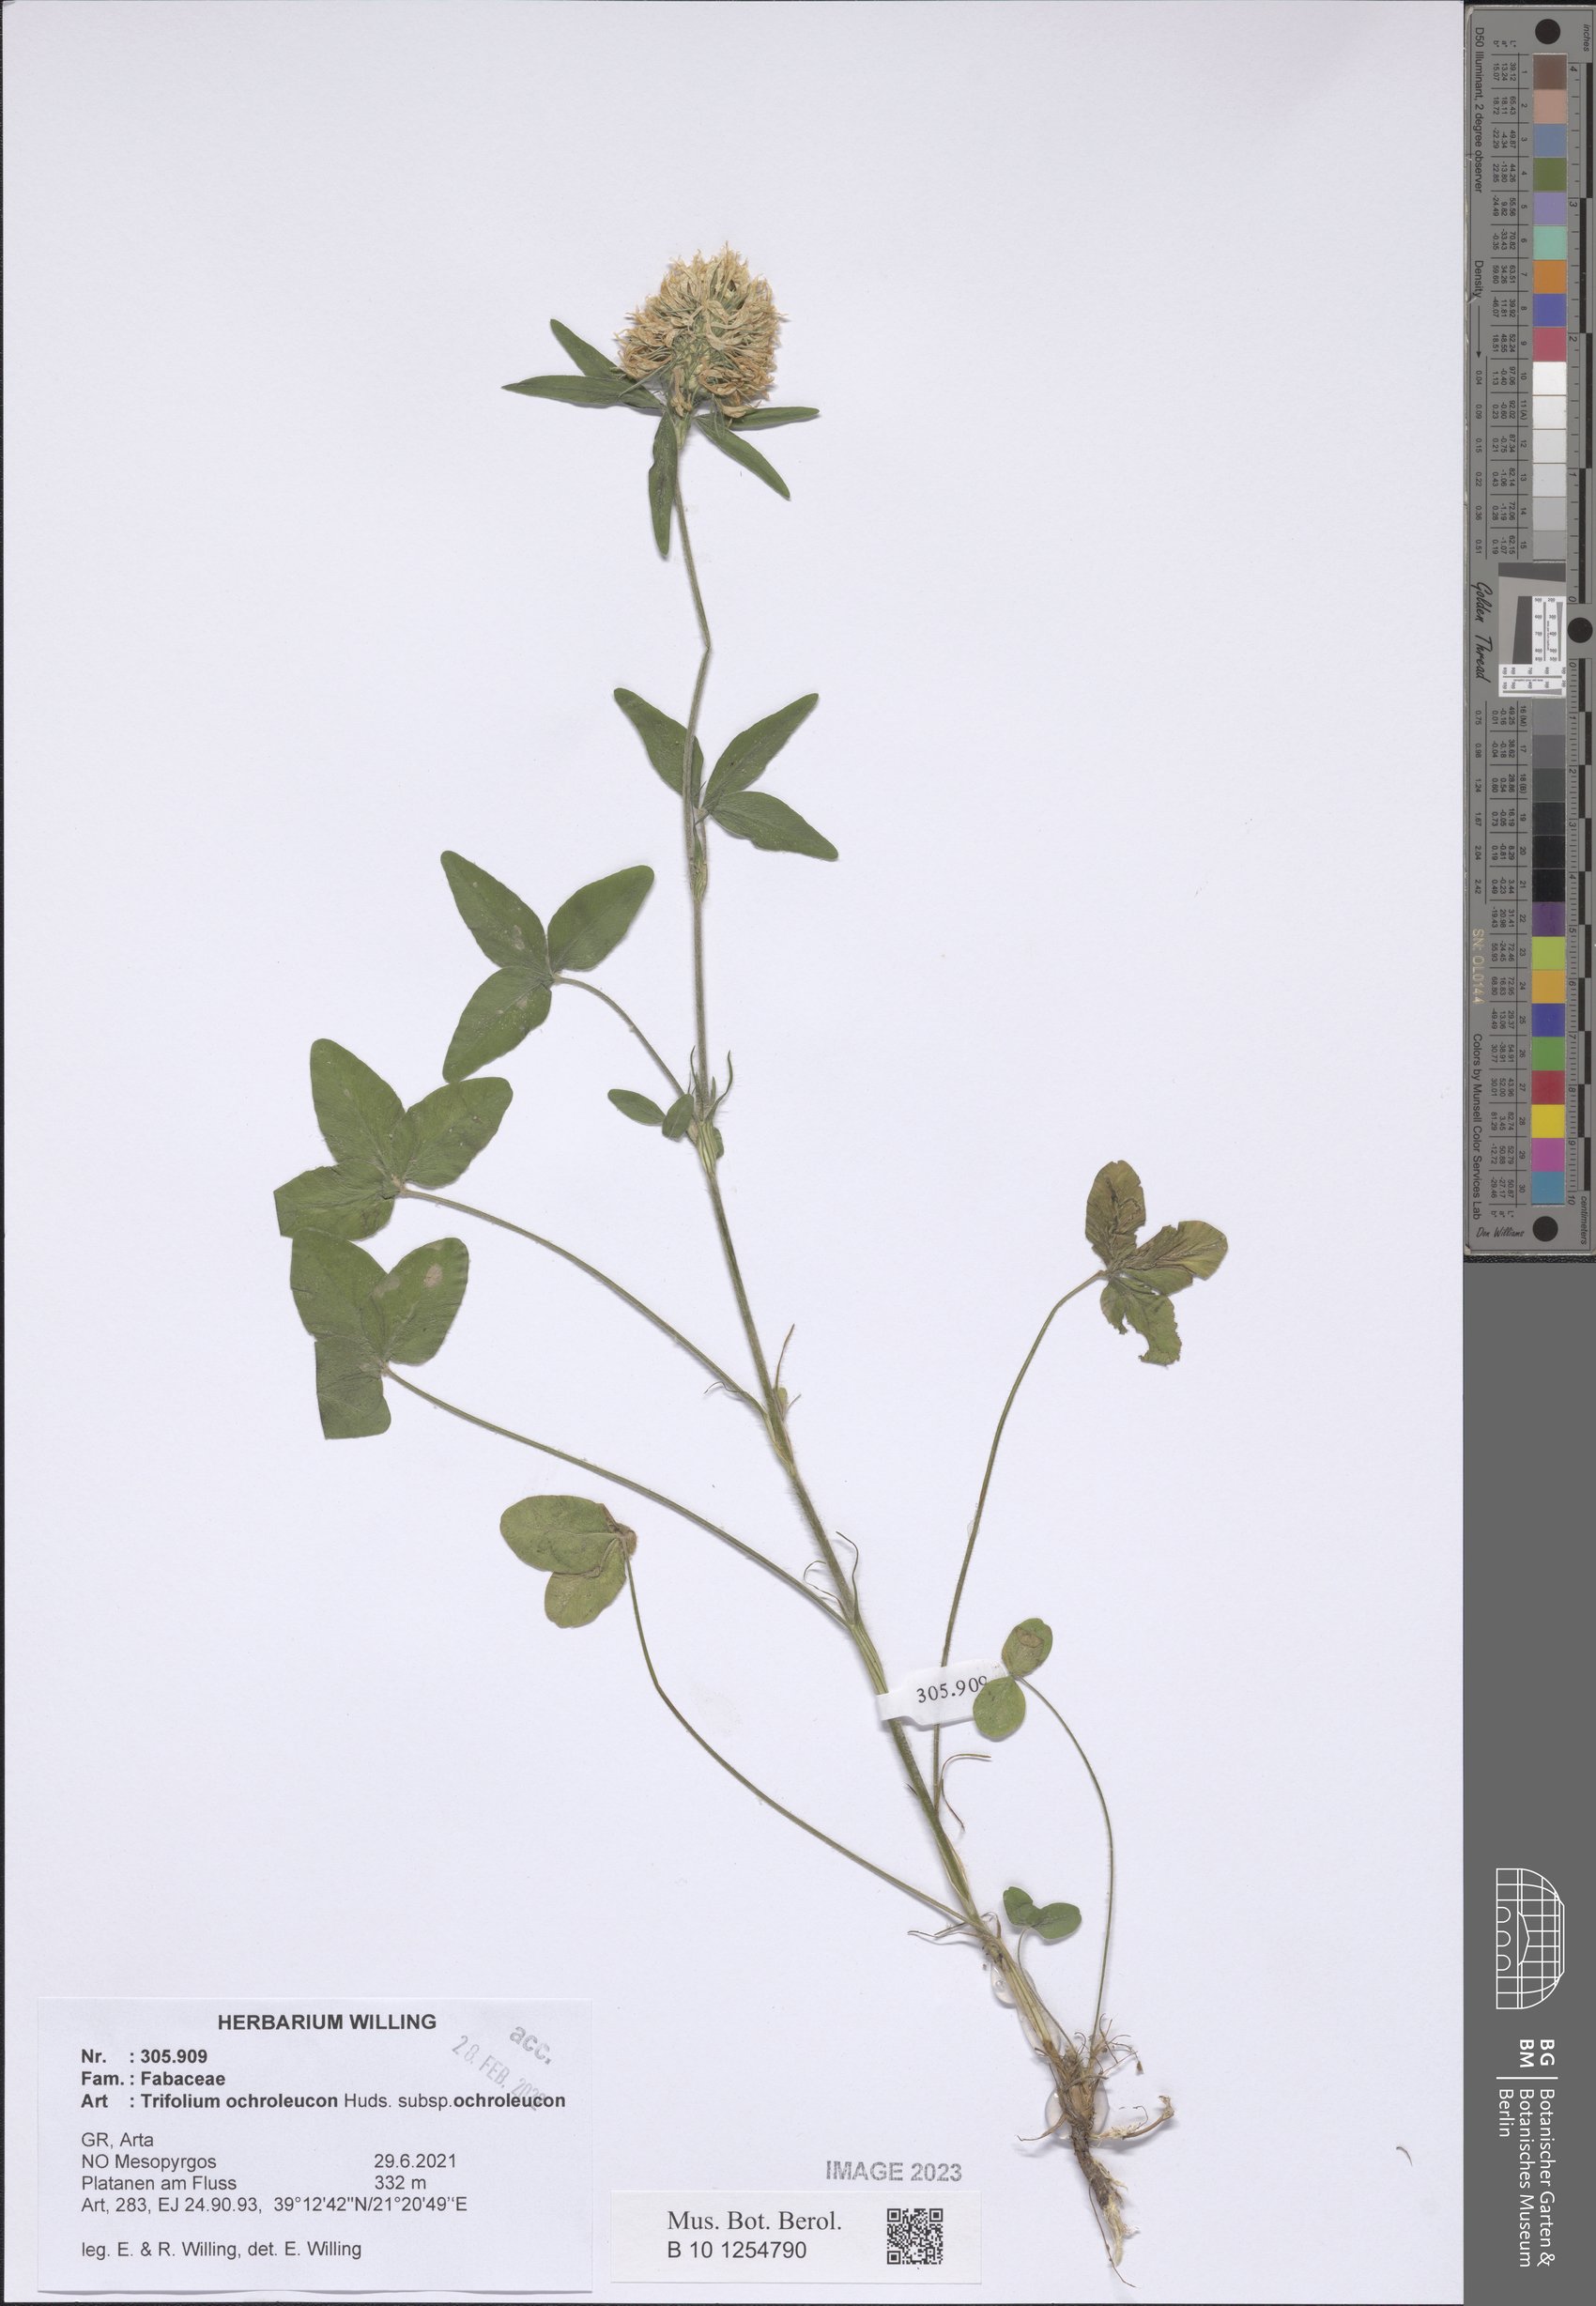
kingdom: Plantae
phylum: Tracheophyta
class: Magnoliopsida
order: Fabales
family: Fabaceae
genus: Trifolium
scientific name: Trifolium ochroleucon
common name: Sulphur clover
